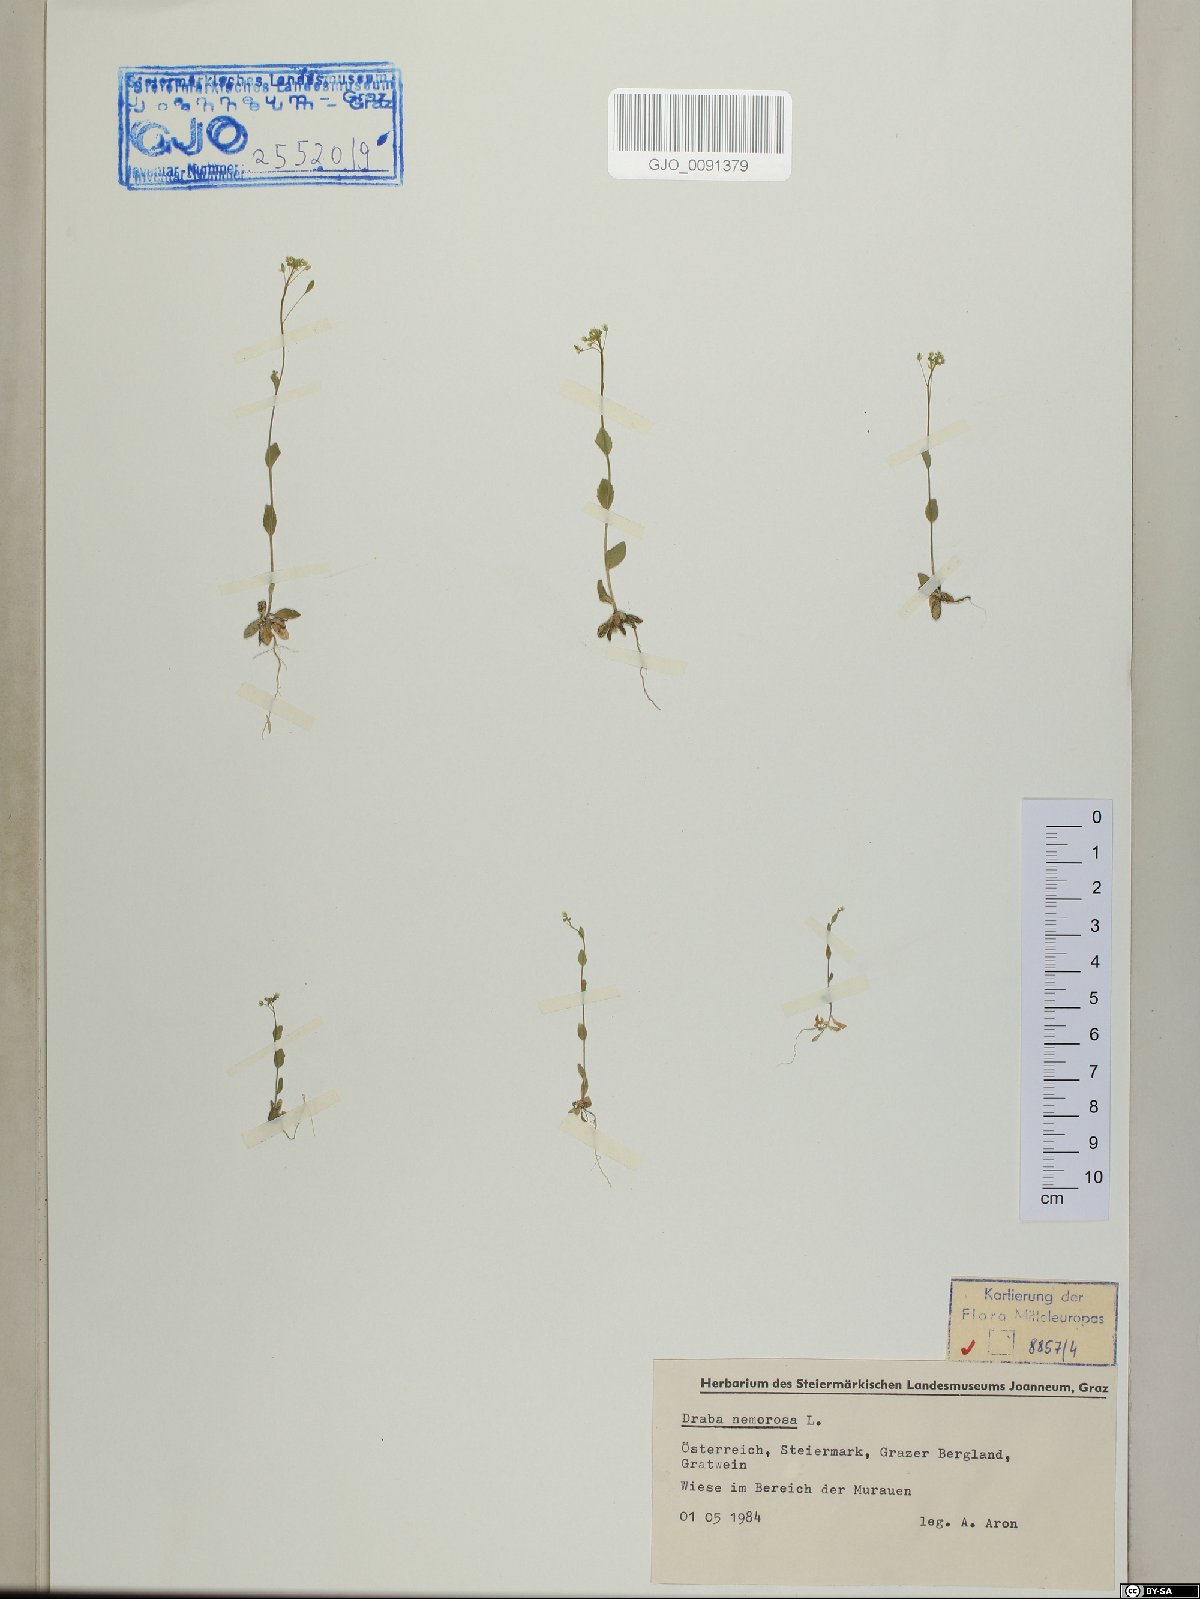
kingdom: Plantae
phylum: Tracheophyta
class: Magnoliopsida
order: Brassicales
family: Brassicaceae
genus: Draba
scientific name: Draba nemorosa
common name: Wood whitlow-grass
